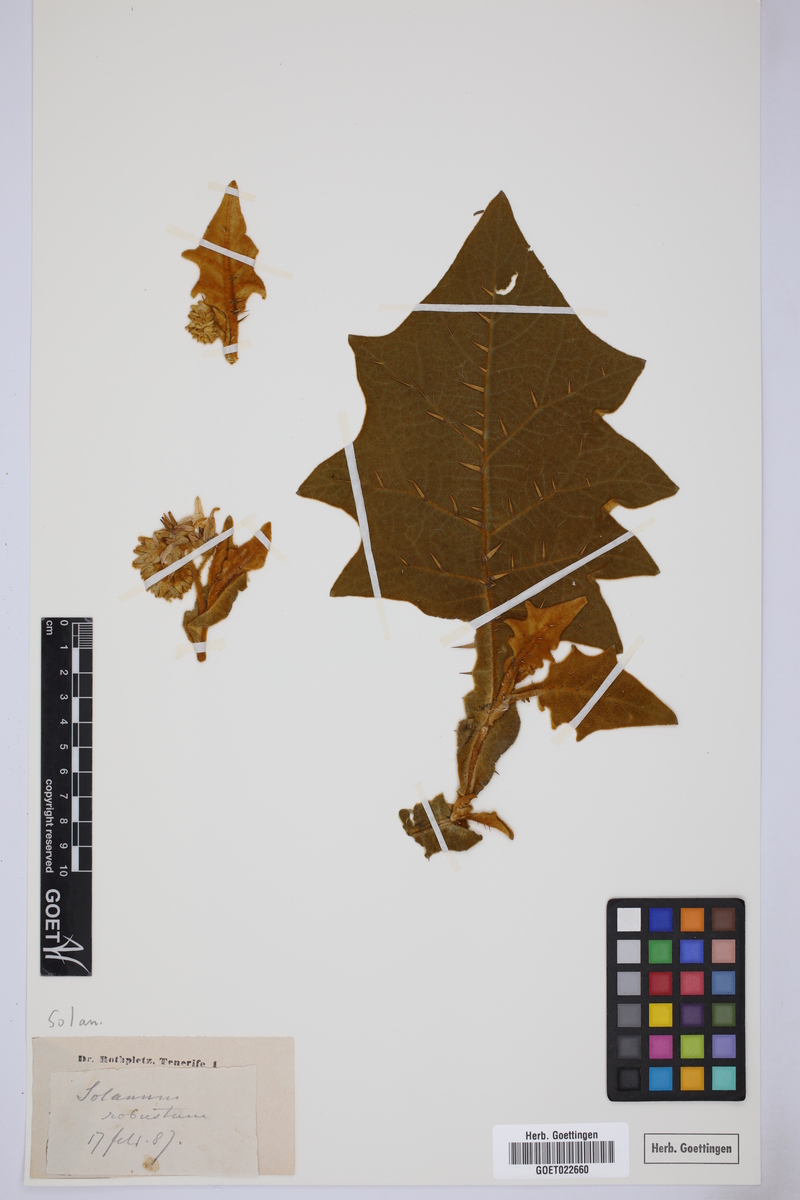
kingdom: Plantae
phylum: Tracheophyta
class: Magnoliopsida
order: Solanales
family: Solanaceae
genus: Solanum
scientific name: Solanum robustum
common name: Shrubby nightshade
